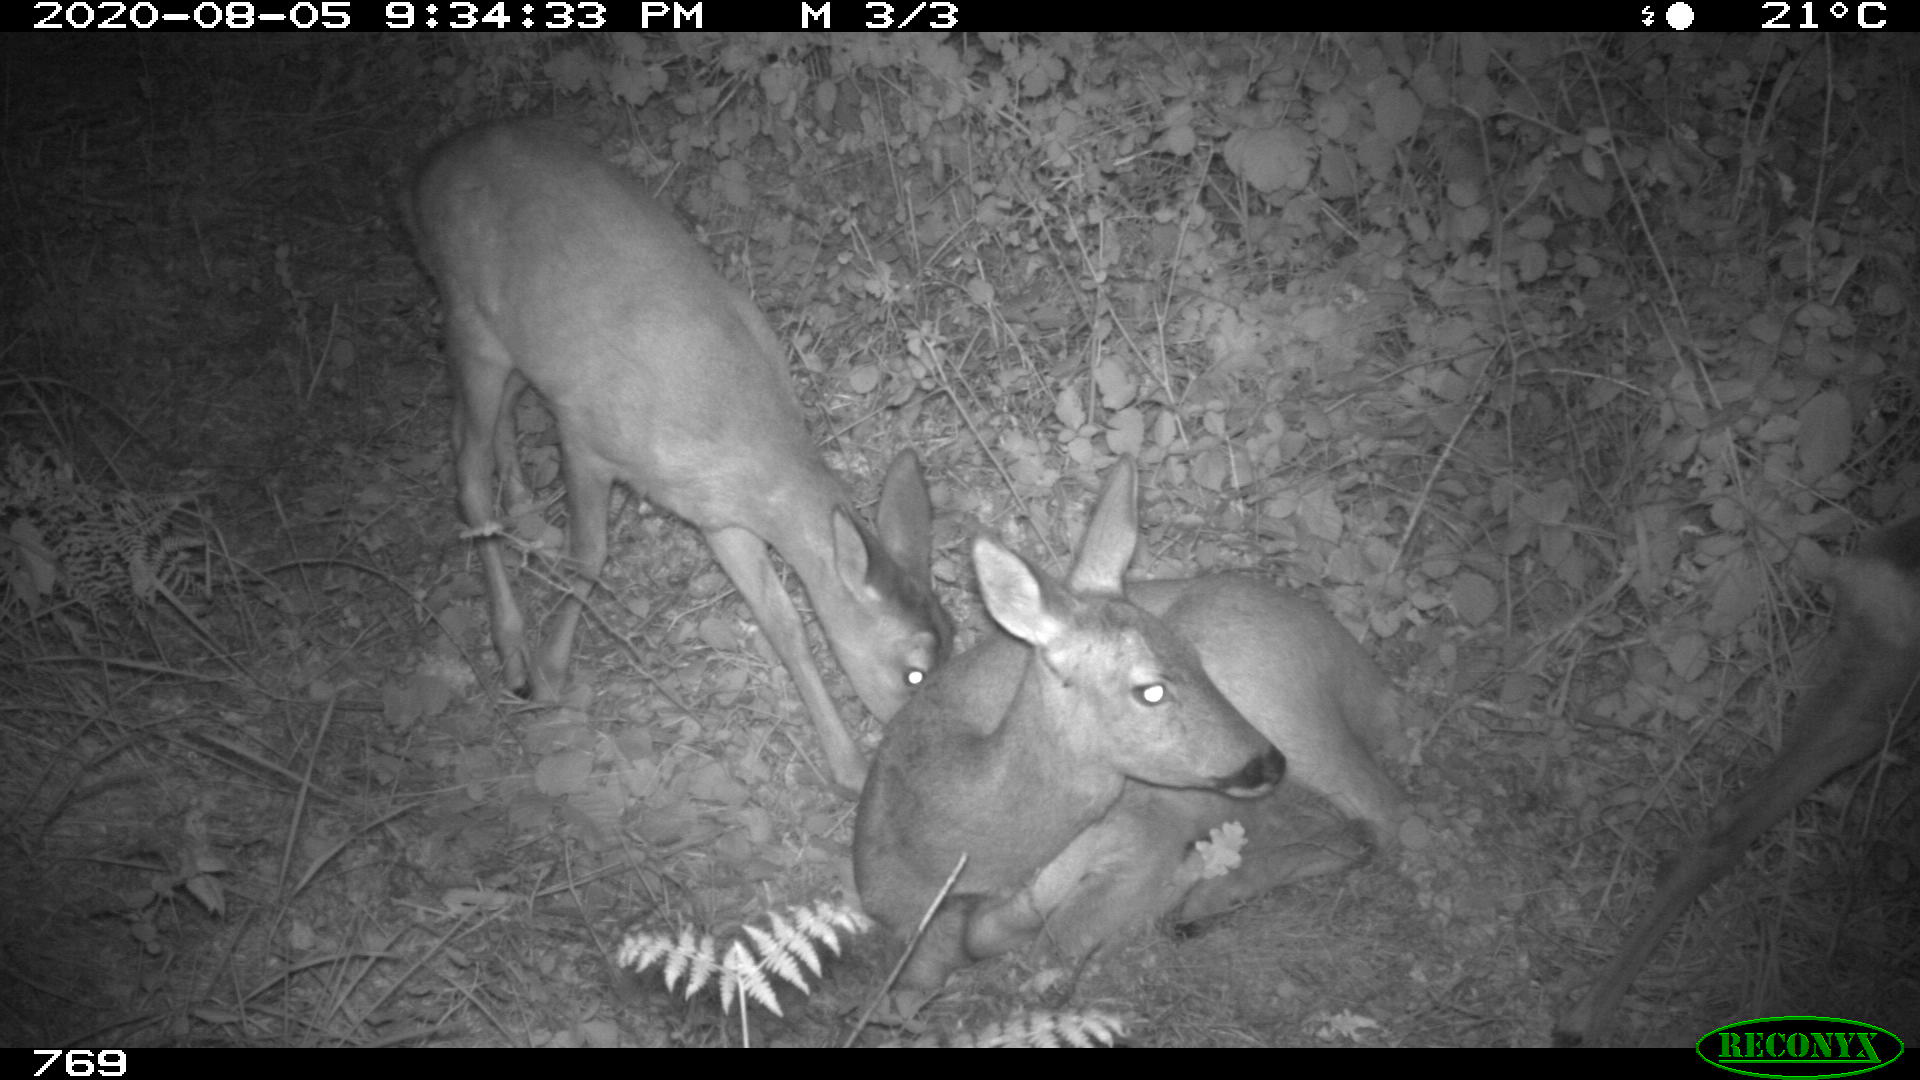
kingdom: Animalia
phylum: Chordata
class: Mammalia
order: Artiodactyla
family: Cervidae
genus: Capreolus
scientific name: Capreolus capreolus
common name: Western roe deer
